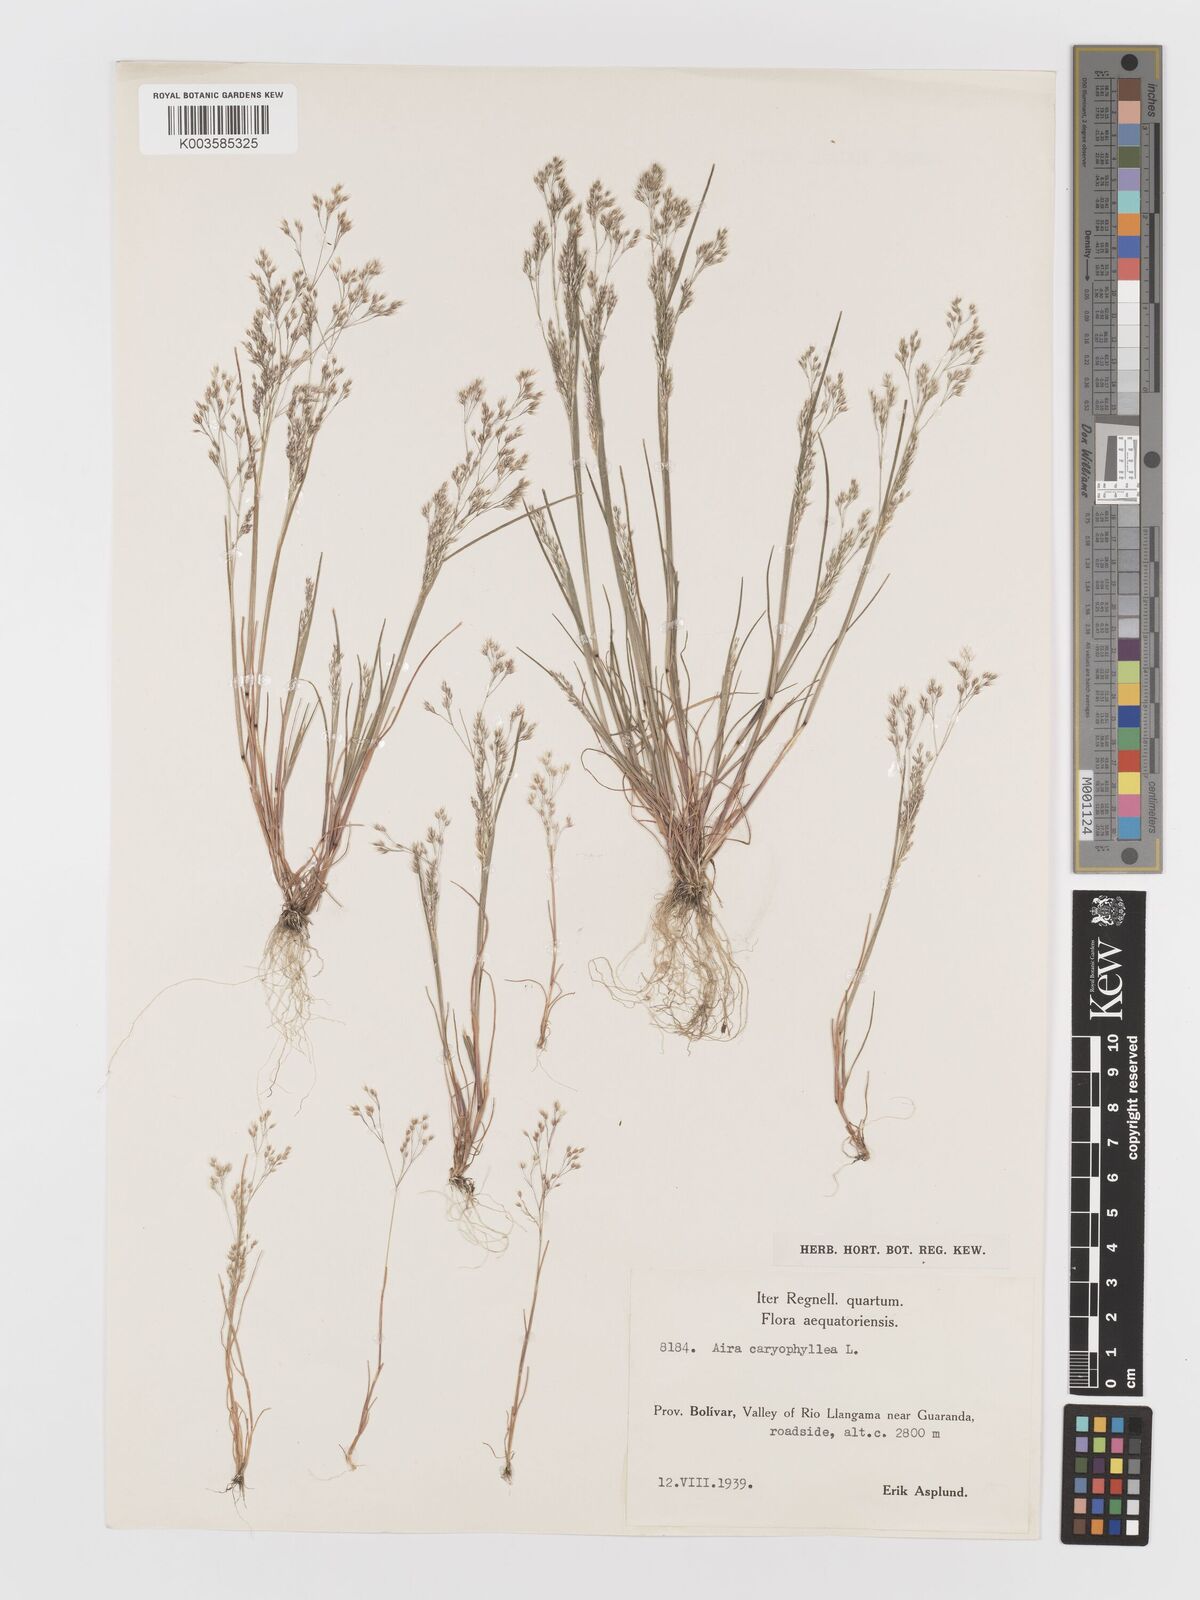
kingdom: Plantae
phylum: Tracheophyta
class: Liliopsida
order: Poales
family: Poaceae
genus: Aira
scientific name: Aira caryophyllea
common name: Silver hairgrass
